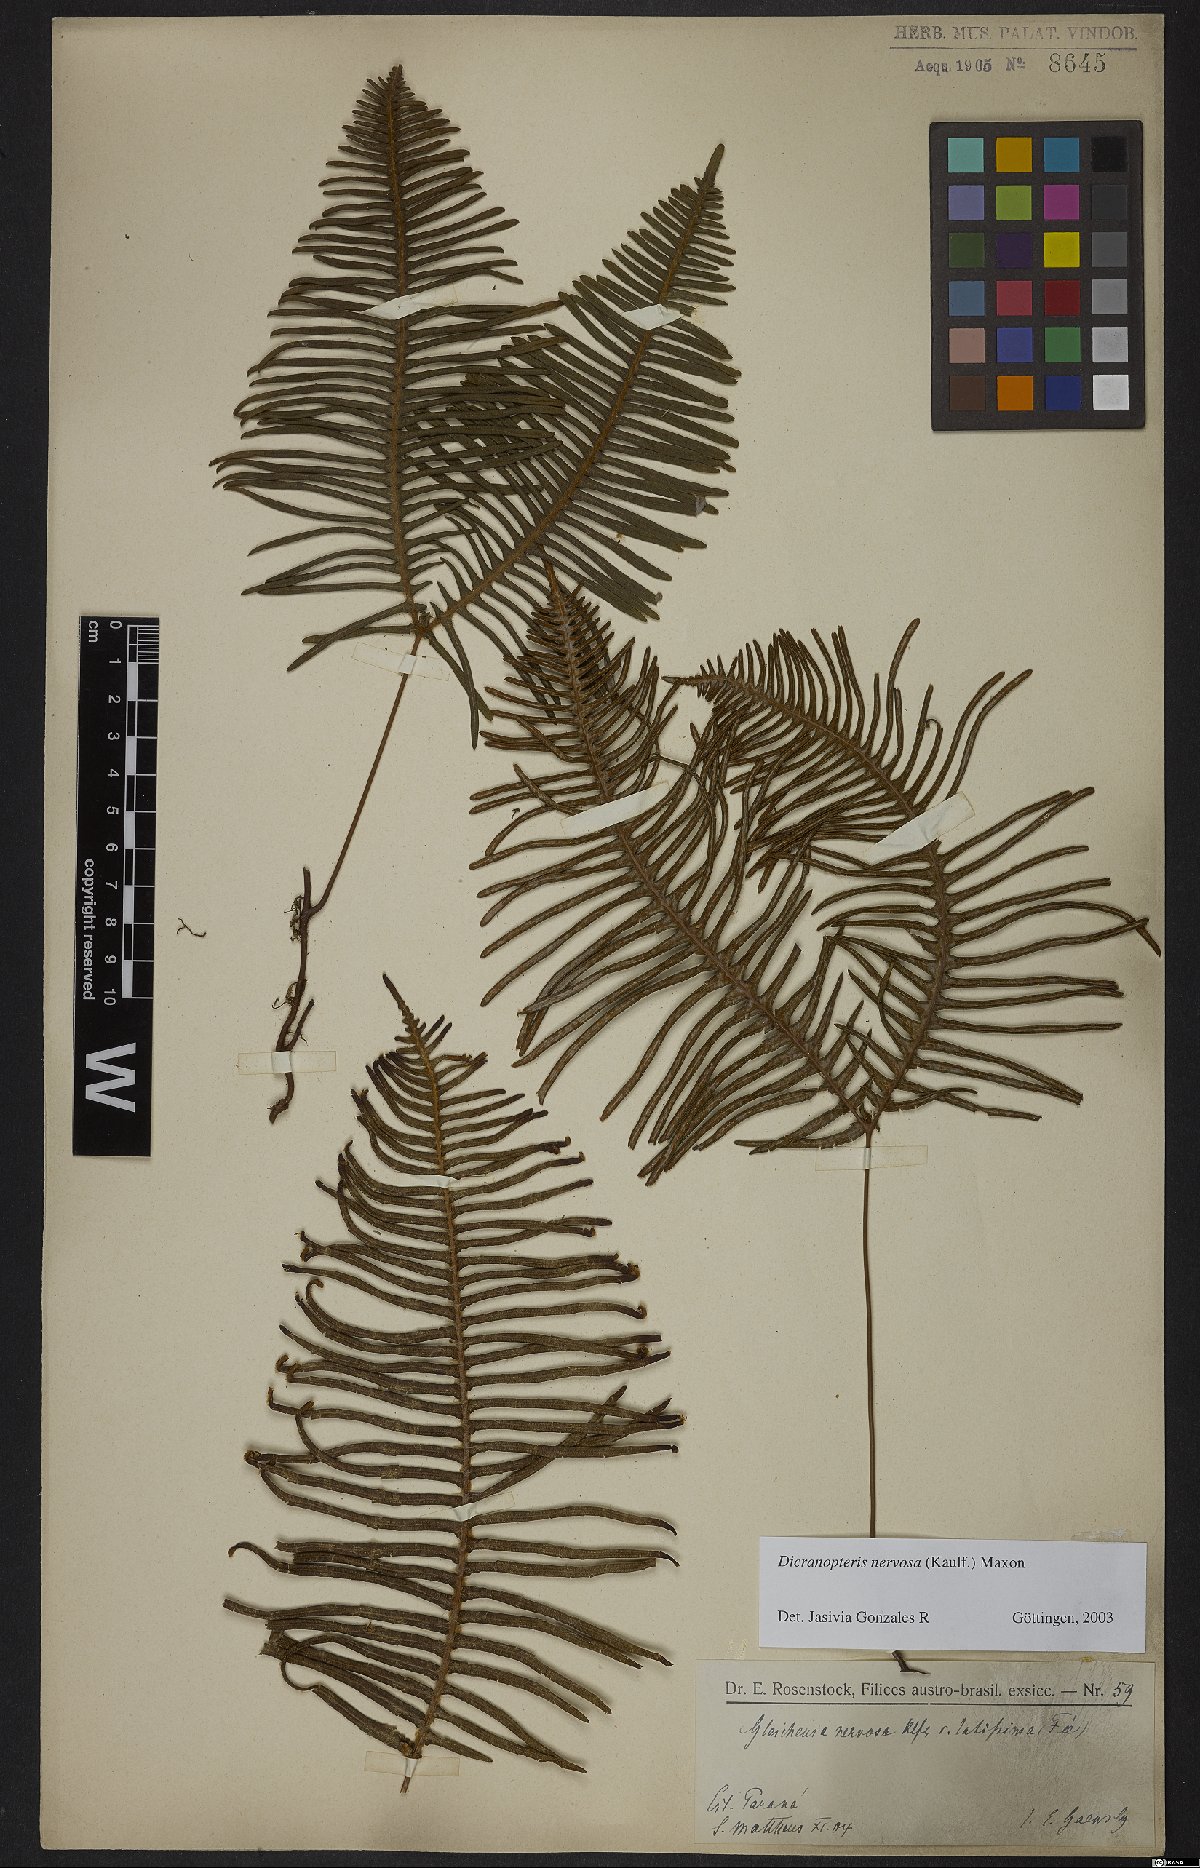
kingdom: Plantae
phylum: Tracheophyta
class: Polypodiopsida
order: Gleicheniales
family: Gleicheniaceae
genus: Dicranopteris
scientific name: Dicranopteris nervosa
